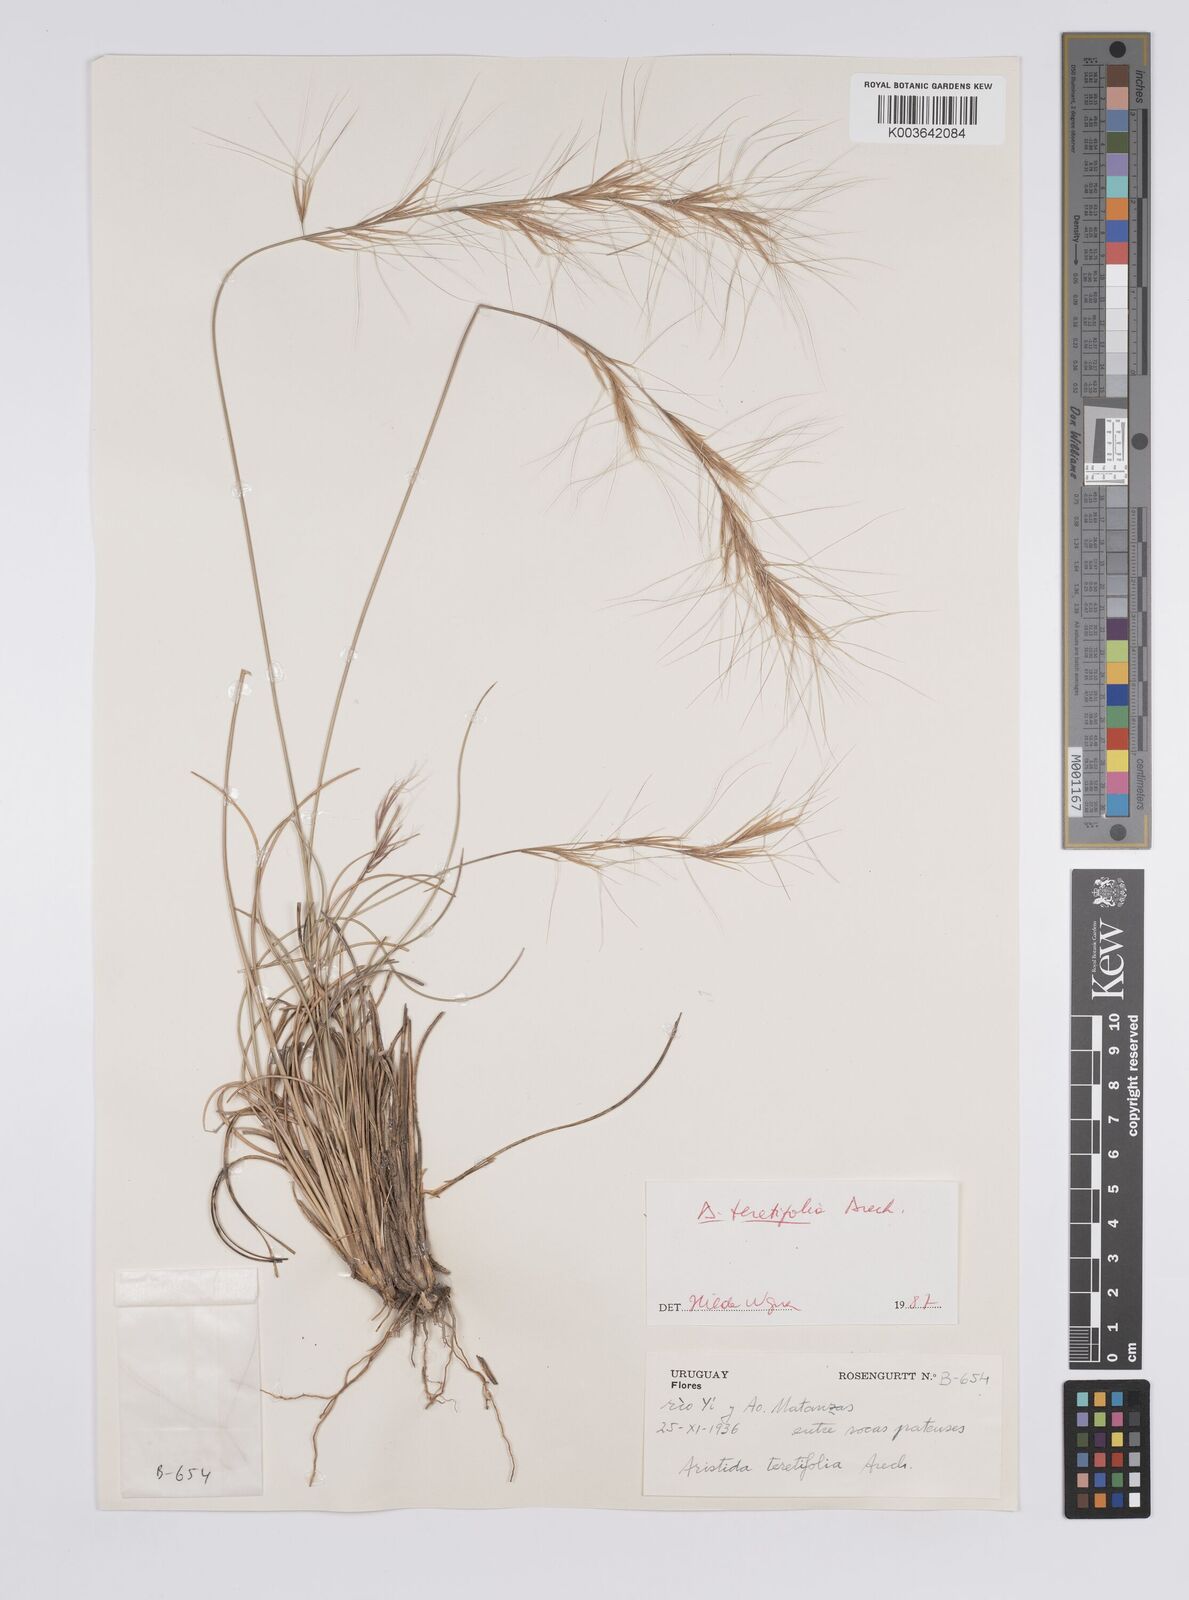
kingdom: Plantae
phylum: Tracheophyta
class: Liliopsida
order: Poales
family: Poaceae
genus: Aristida
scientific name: Aristida teretifolia
